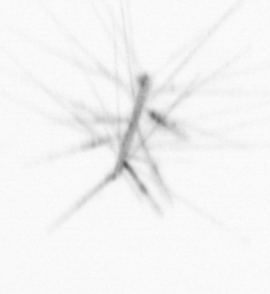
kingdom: Chromista
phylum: Ochrophyta
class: Bacillariophyceae
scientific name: Bacillariophyceae
